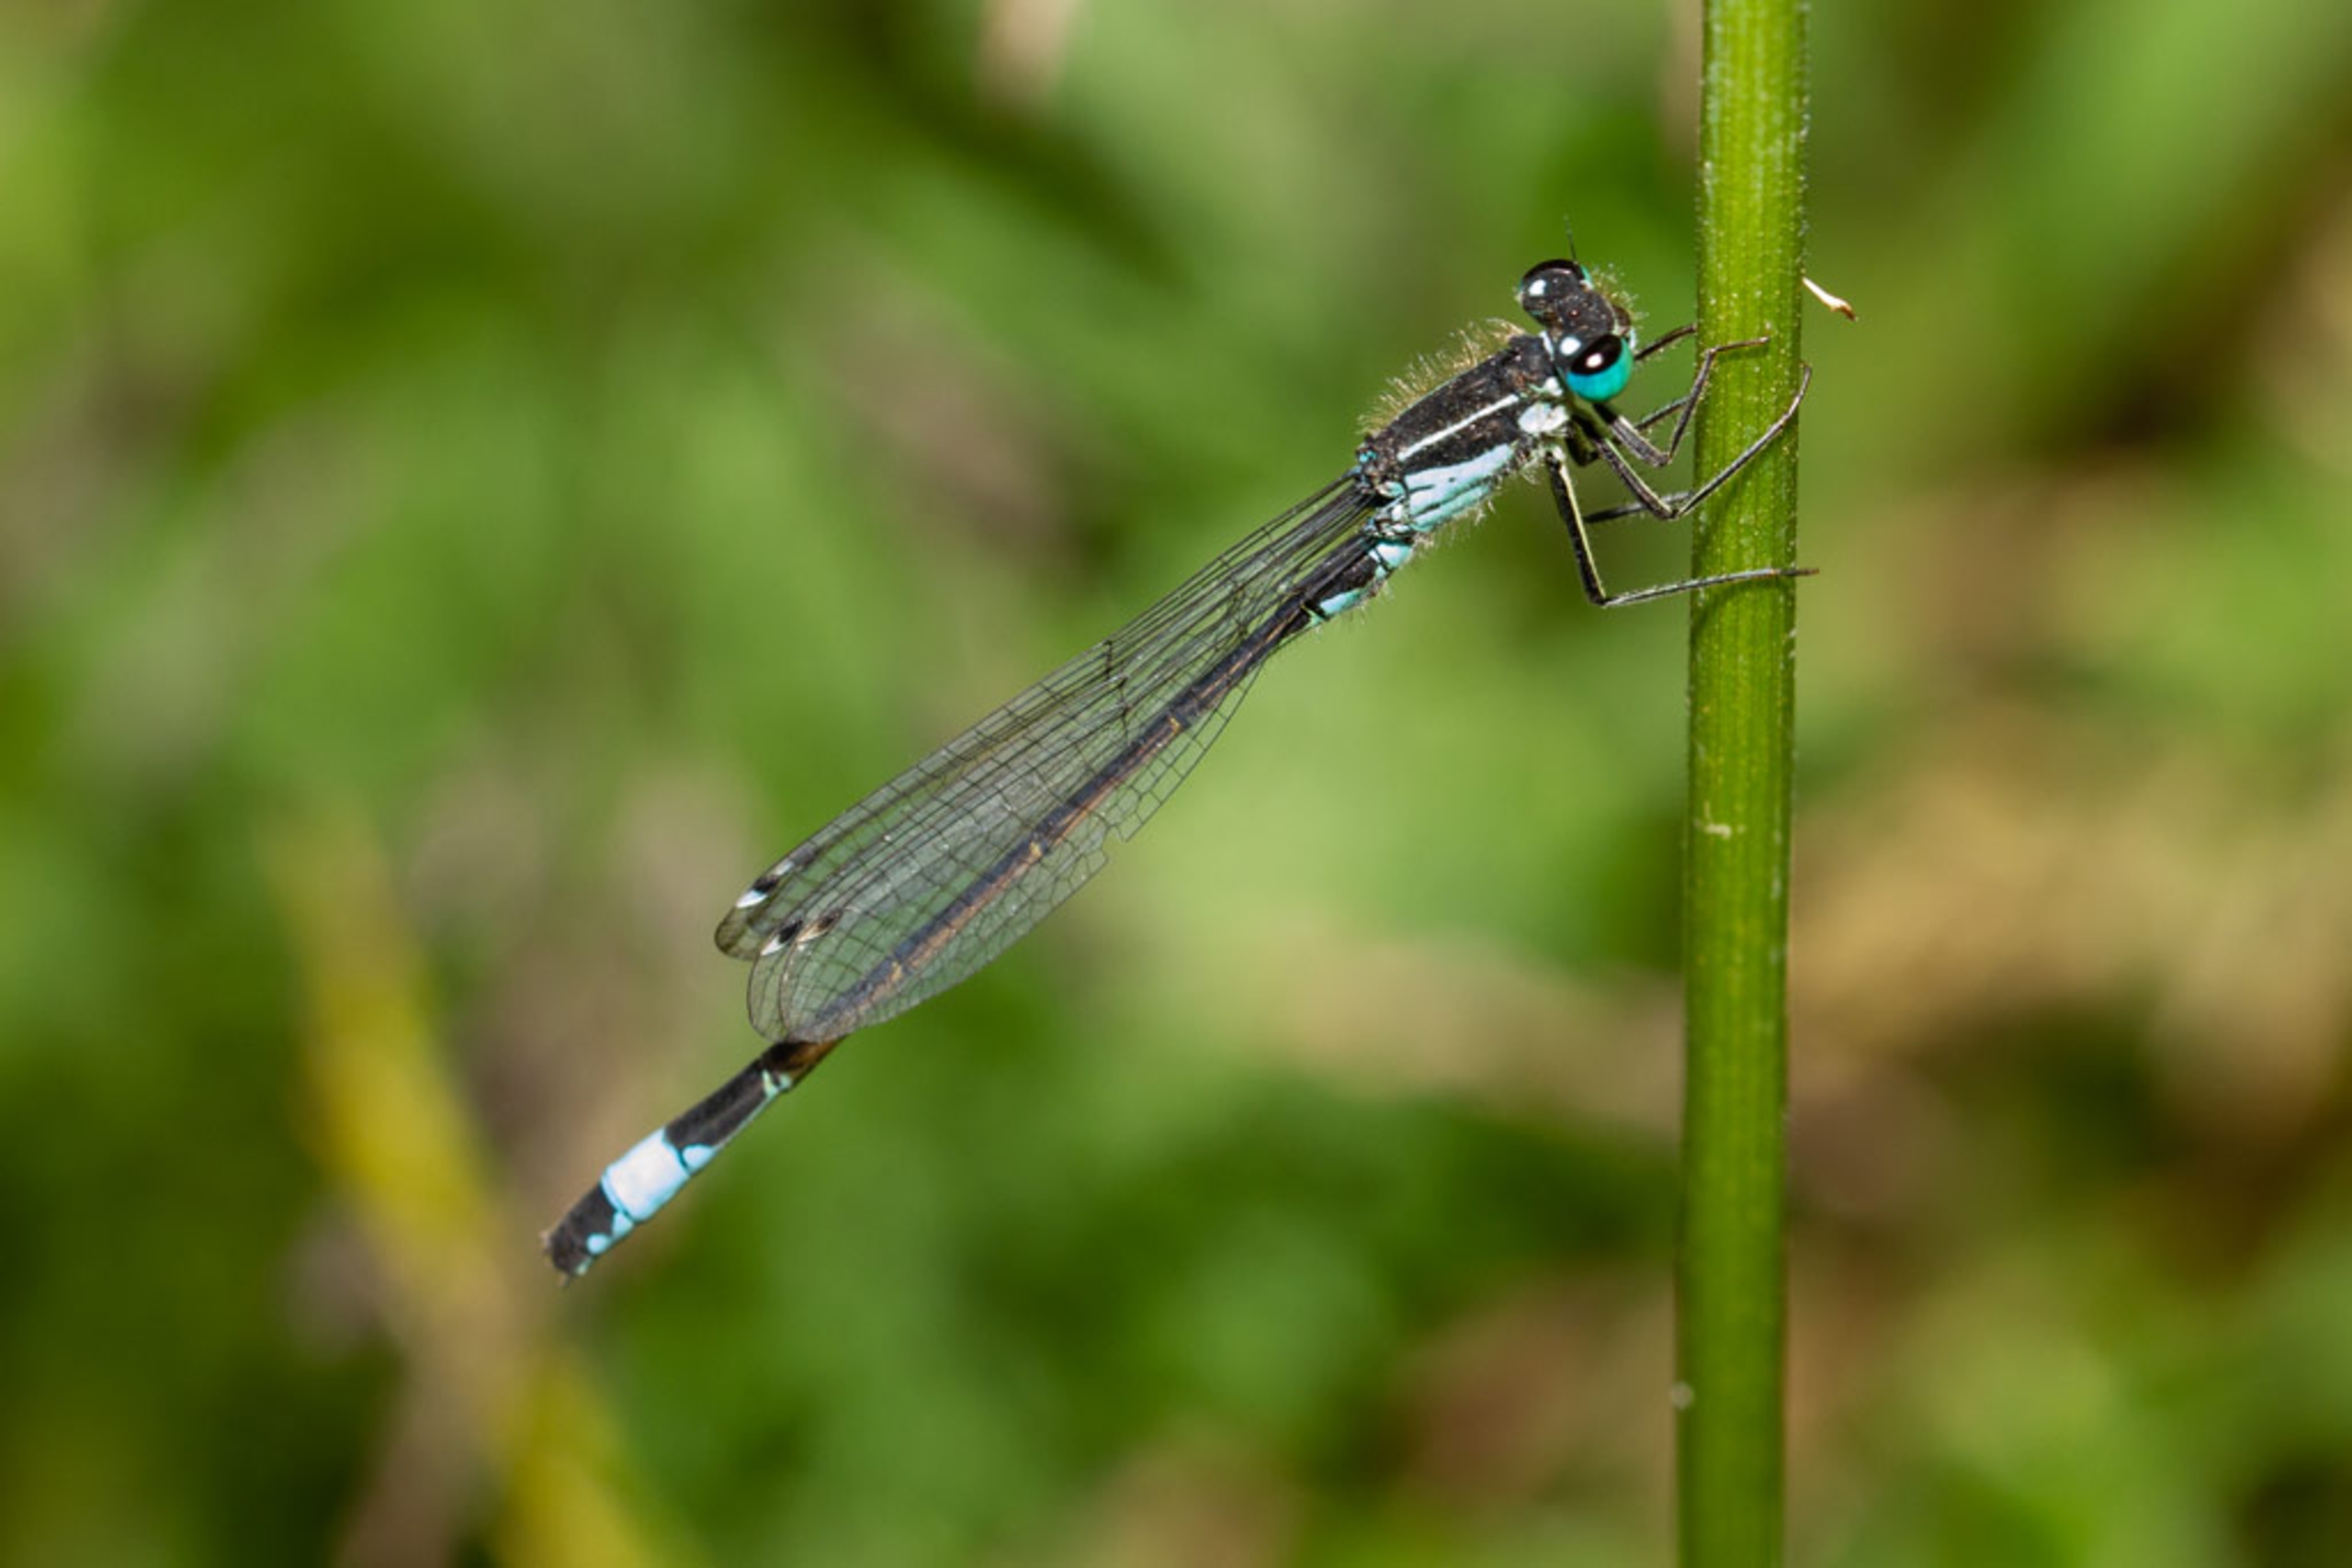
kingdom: Animalia
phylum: Arthropoda
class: Insecta
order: Odonata
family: Coenagrionidae
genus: Ischnura
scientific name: Ischnura elegans
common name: Stor farvevandnymfe
